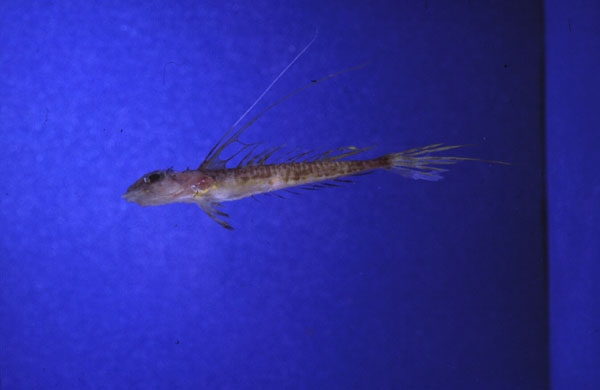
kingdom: Animalia
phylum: Chordata
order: Perciformes
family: Callionymidae
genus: Paracallionymus
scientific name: Paracallionymus costatus
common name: Ladder dragonet
